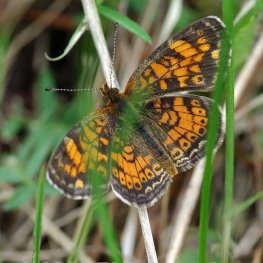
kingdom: Animalia
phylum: Arthropoda
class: Insecta
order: Lepidoptera
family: Nymphalidae
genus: Phyciodes
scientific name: Phyciodes tharos
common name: Pearl Crescent
